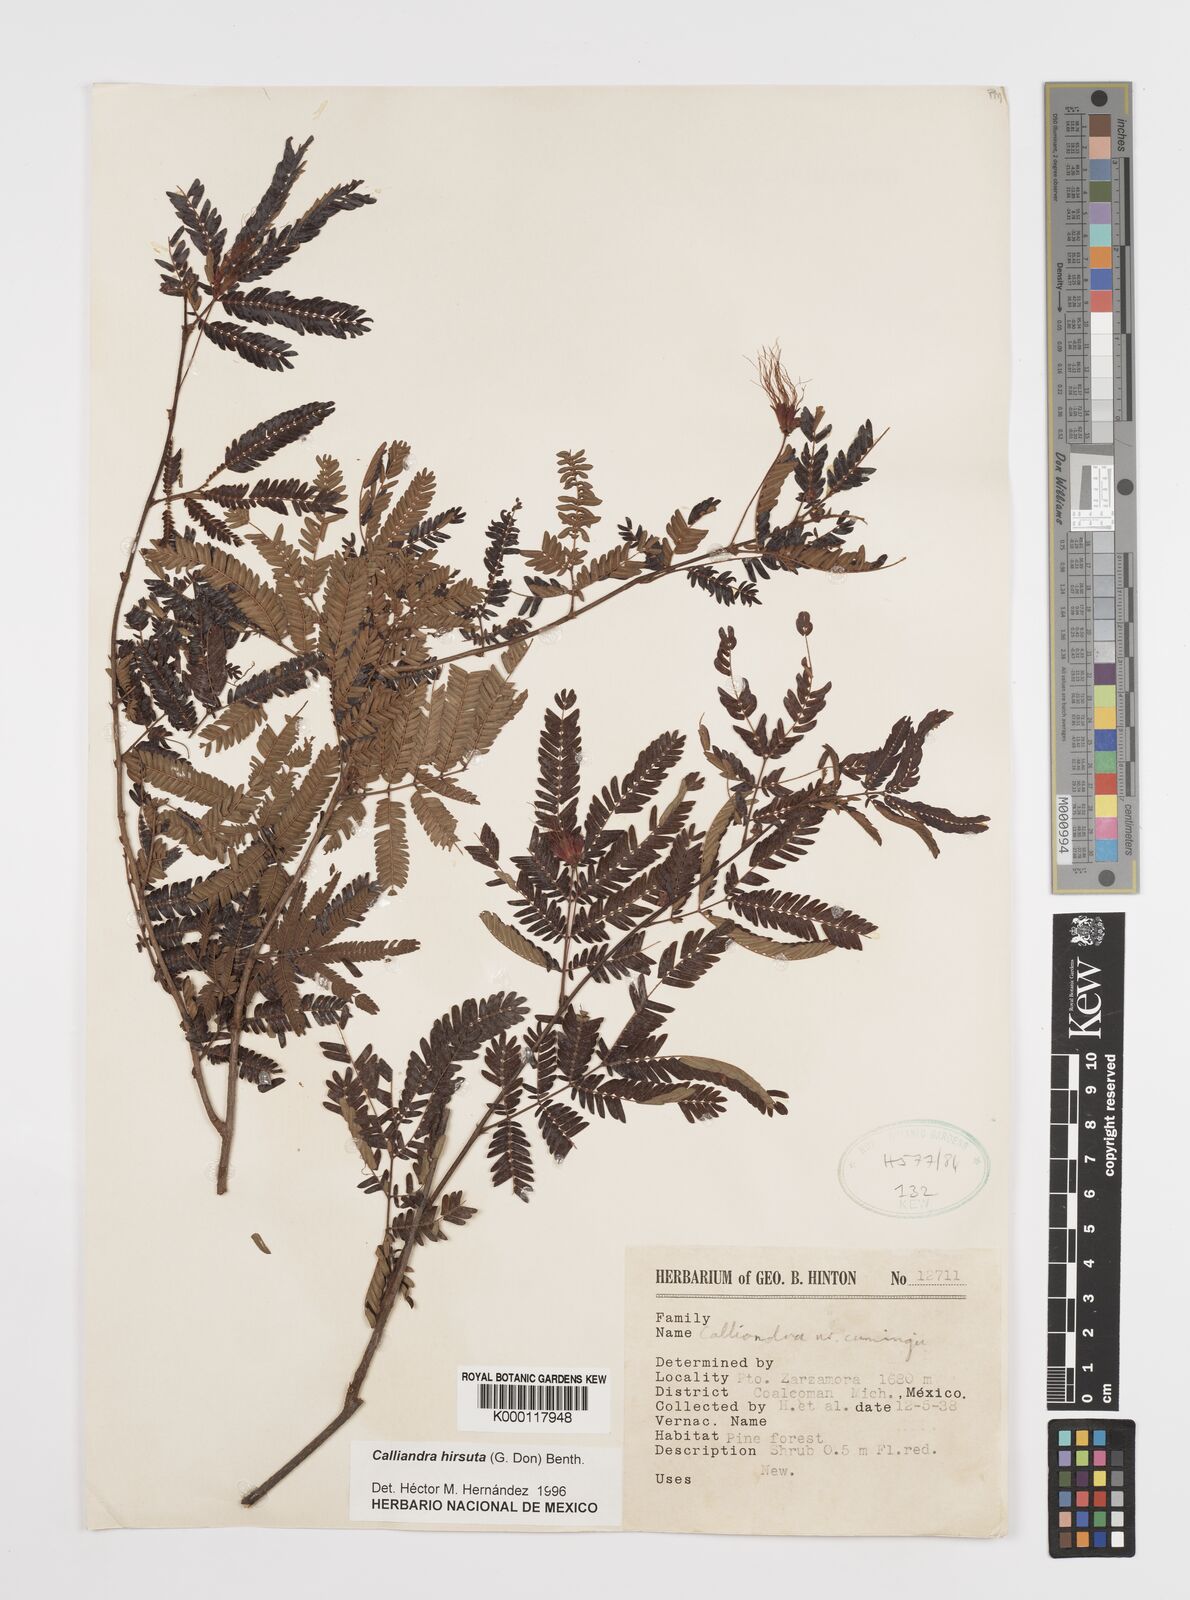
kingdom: Plantae
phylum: Tracheophyta
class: Magnoliopsida
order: Fabales
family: Fabaceae
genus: Calliandra
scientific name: Calliandra hirsuta
